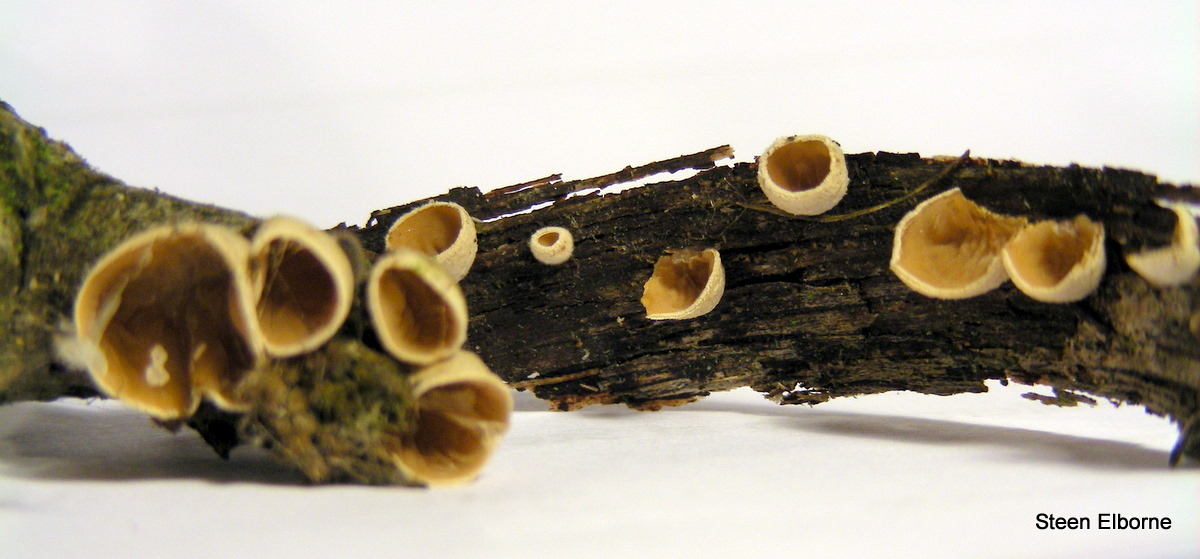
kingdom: Fungi
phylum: Basidiomycota
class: Agaricomycetes
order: Agaricales
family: Schizophyllaceae
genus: Schizophyllum
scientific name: Schizophyllum amplum
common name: poppel-hængeøre
